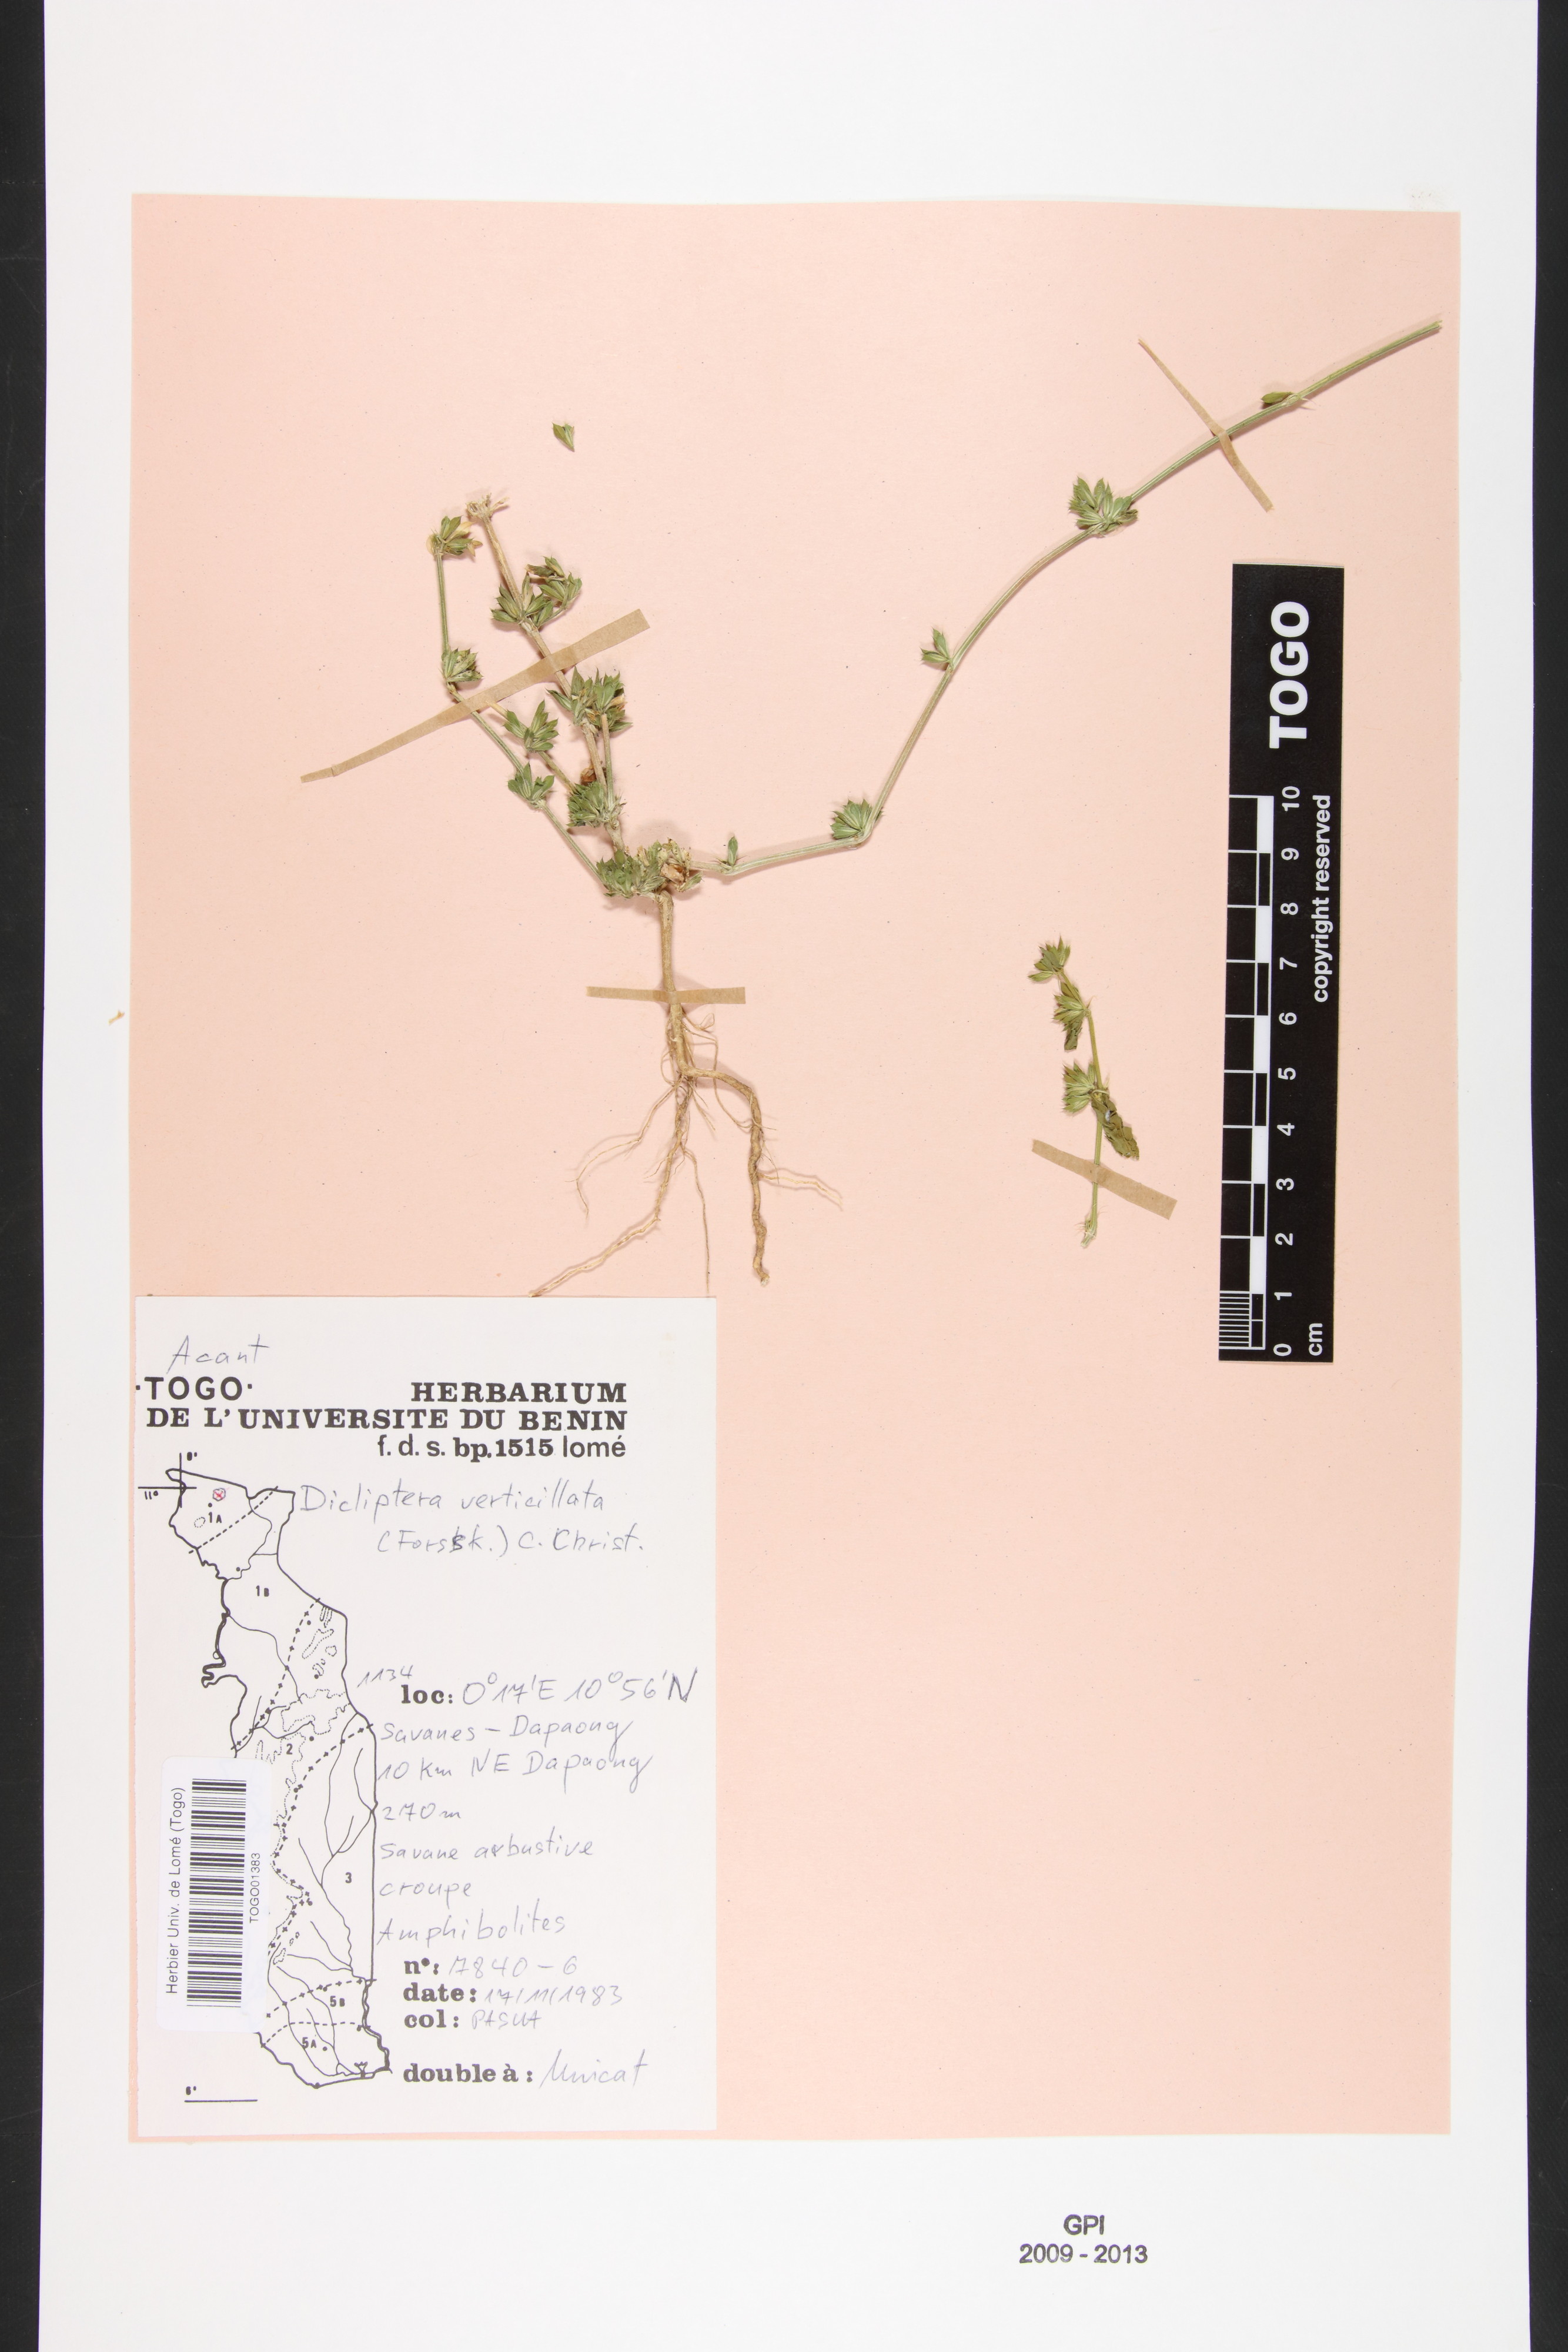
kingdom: Plantae
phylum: Tracheophyta
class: Magnoliopsida
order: Lamiales
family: Acanthaceae
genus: Dicliptera
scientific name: Dicliptera verticillata
